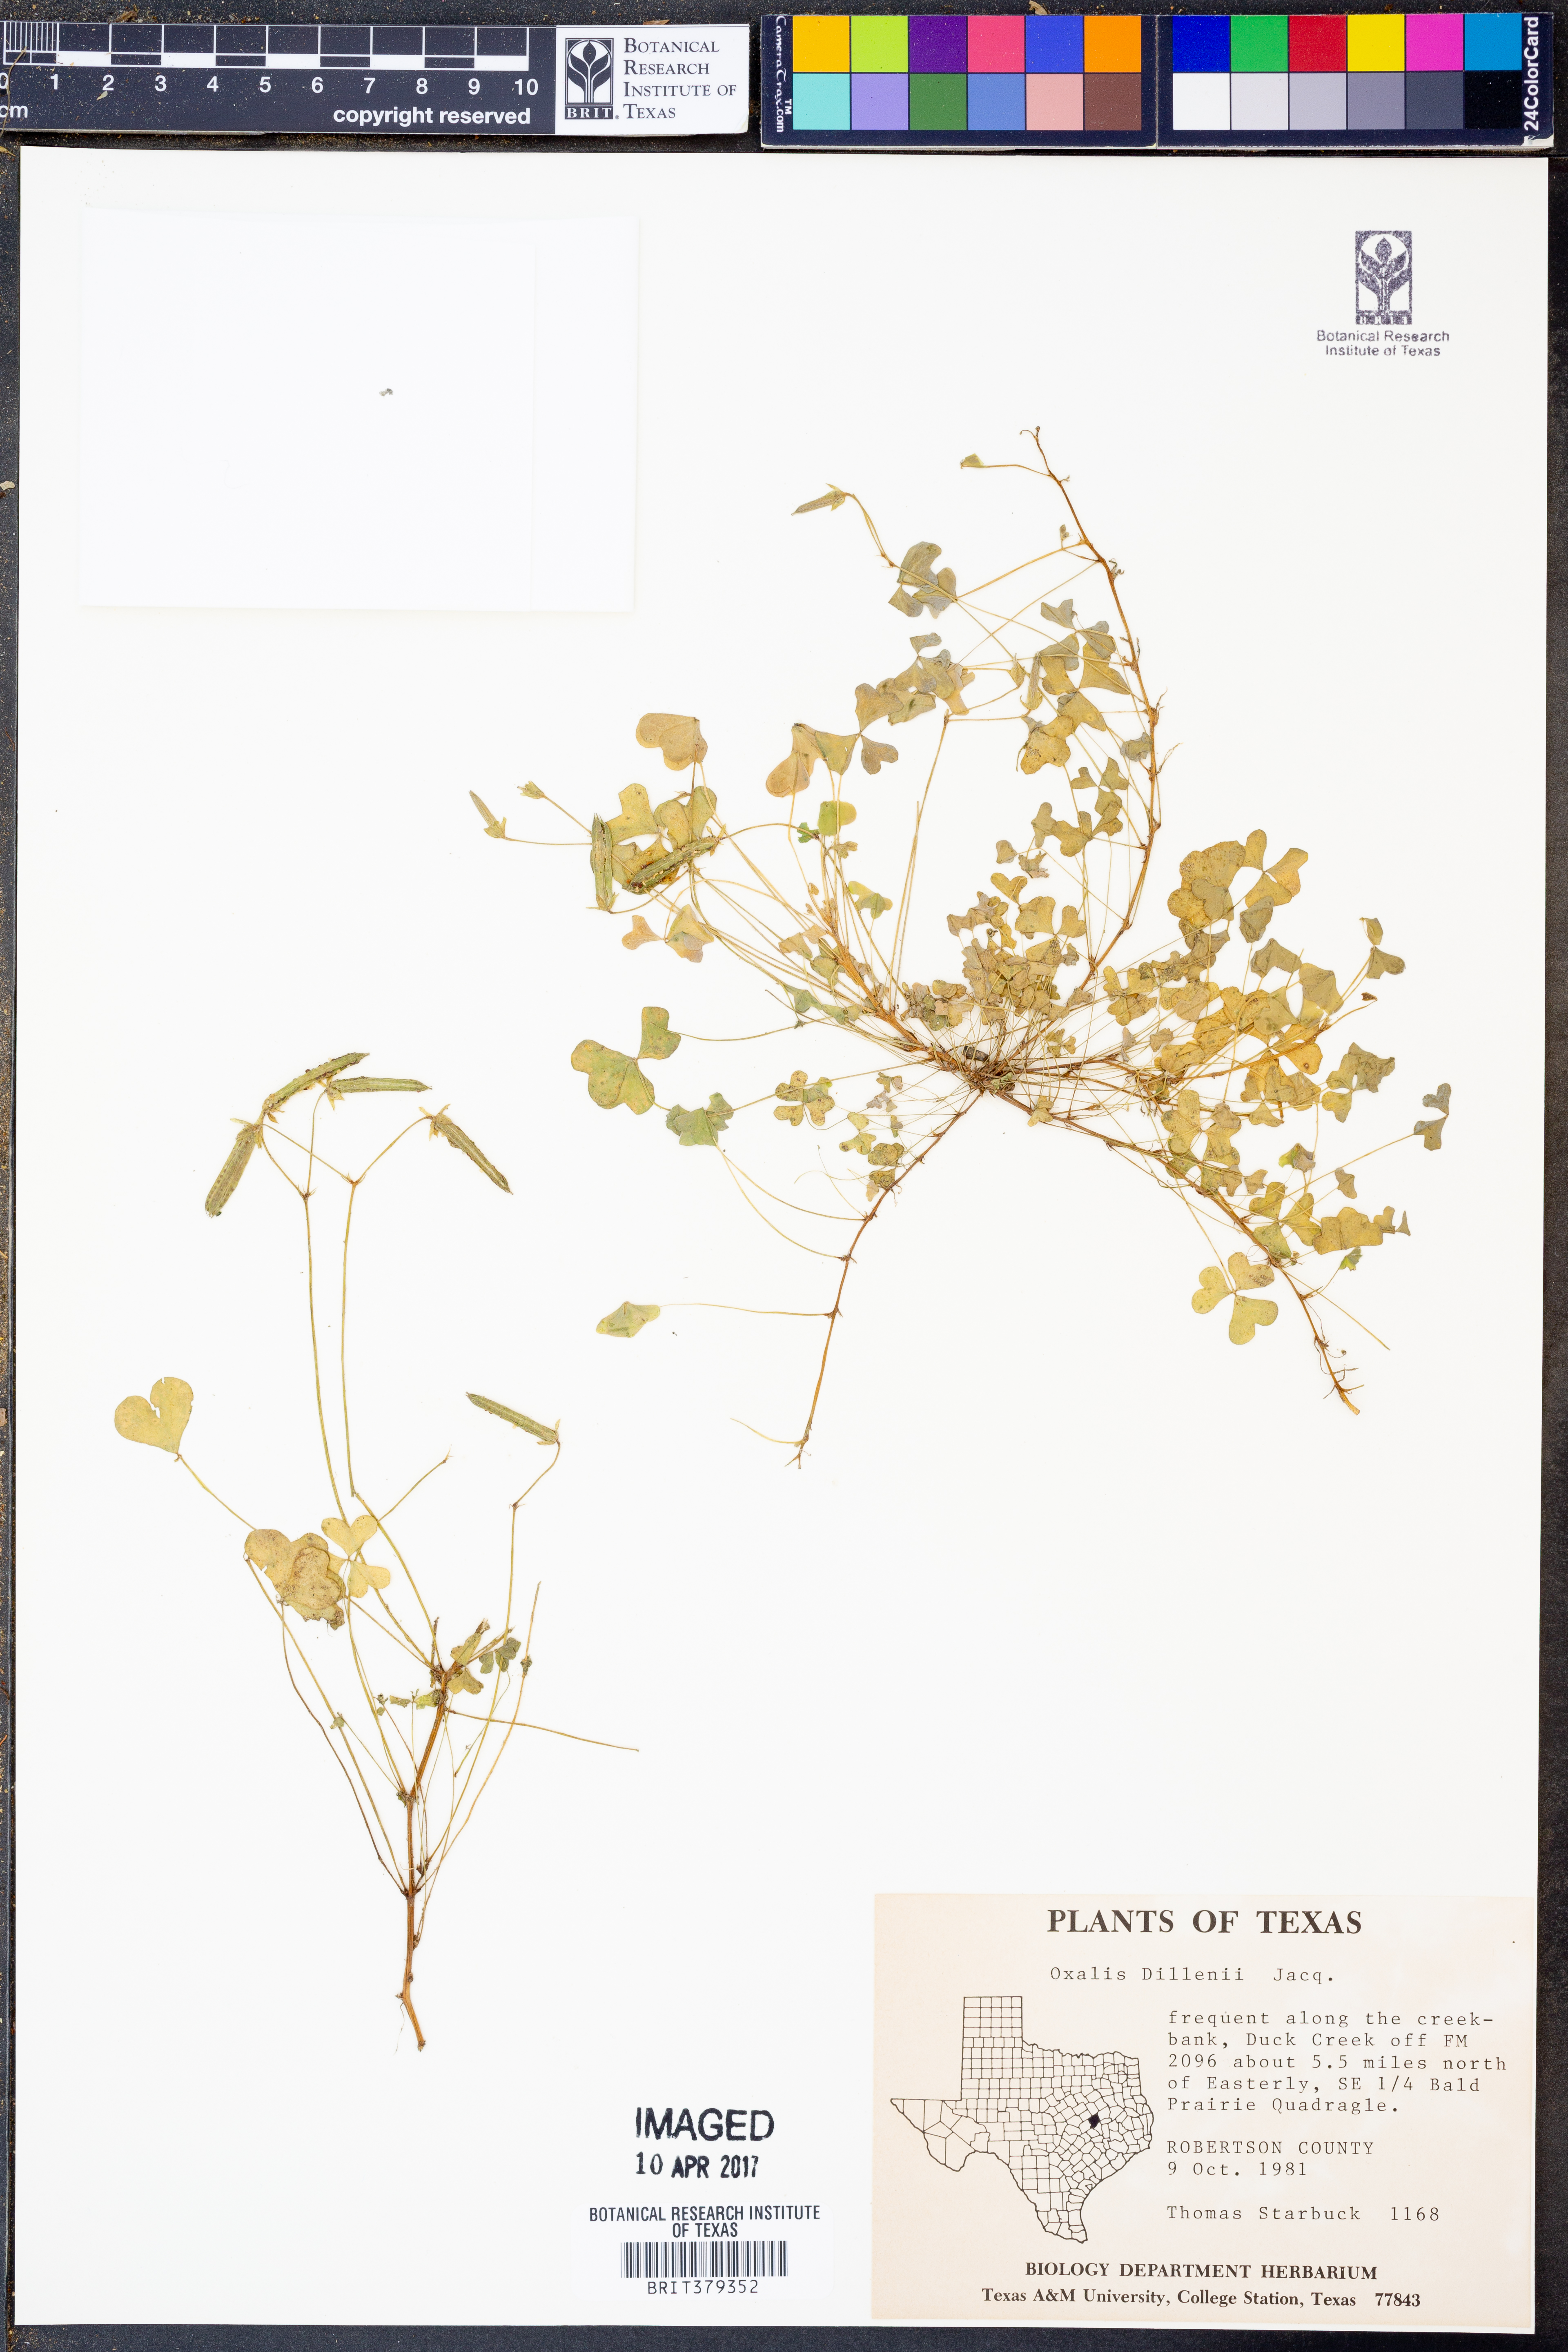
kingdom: Plantae
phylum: Tracheophyta
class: Magnoliopsida
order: Oxalidales
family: Oxalidaceae
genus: Oxalis
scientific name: Oxalis dillenii
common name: Sussex yellow-sorrel
